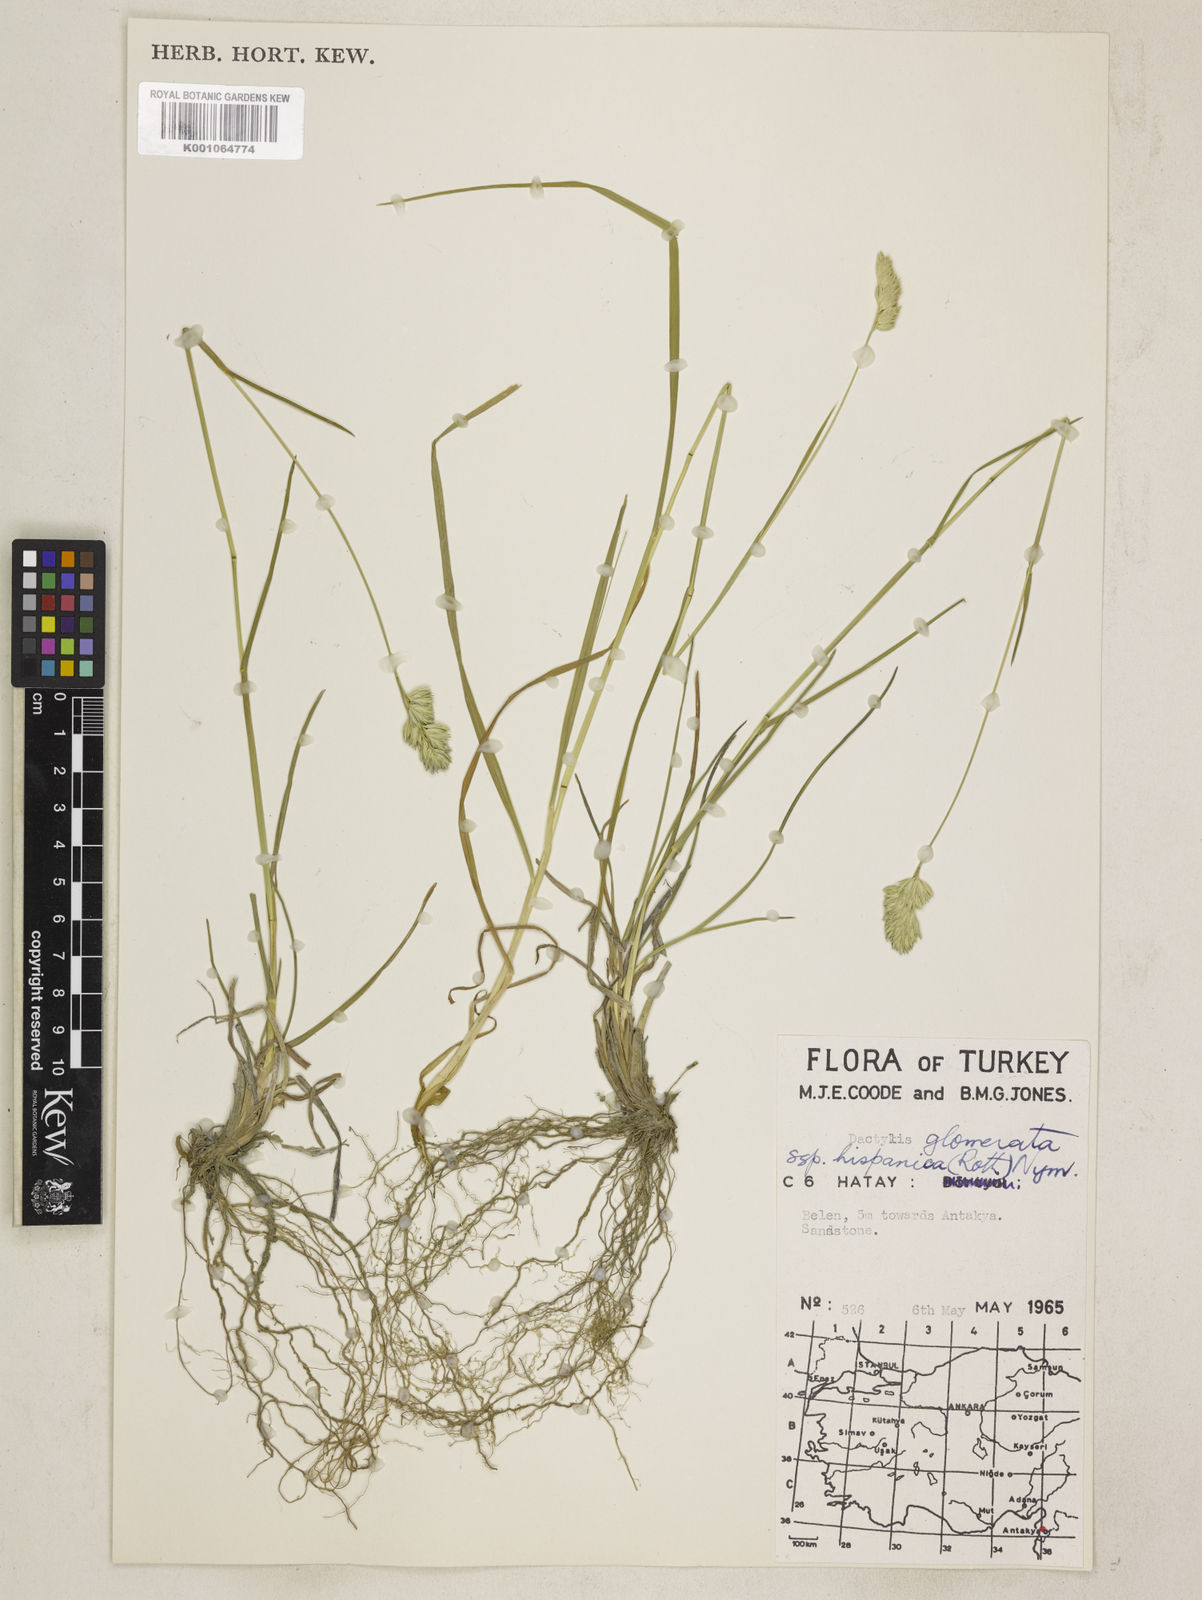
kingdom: Plantae
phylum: Tracheophyta
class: Liliopsida
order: Poales
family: Poaceae
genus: Dactylis
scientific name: Dactylis glomerata
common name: Orchardgrass
